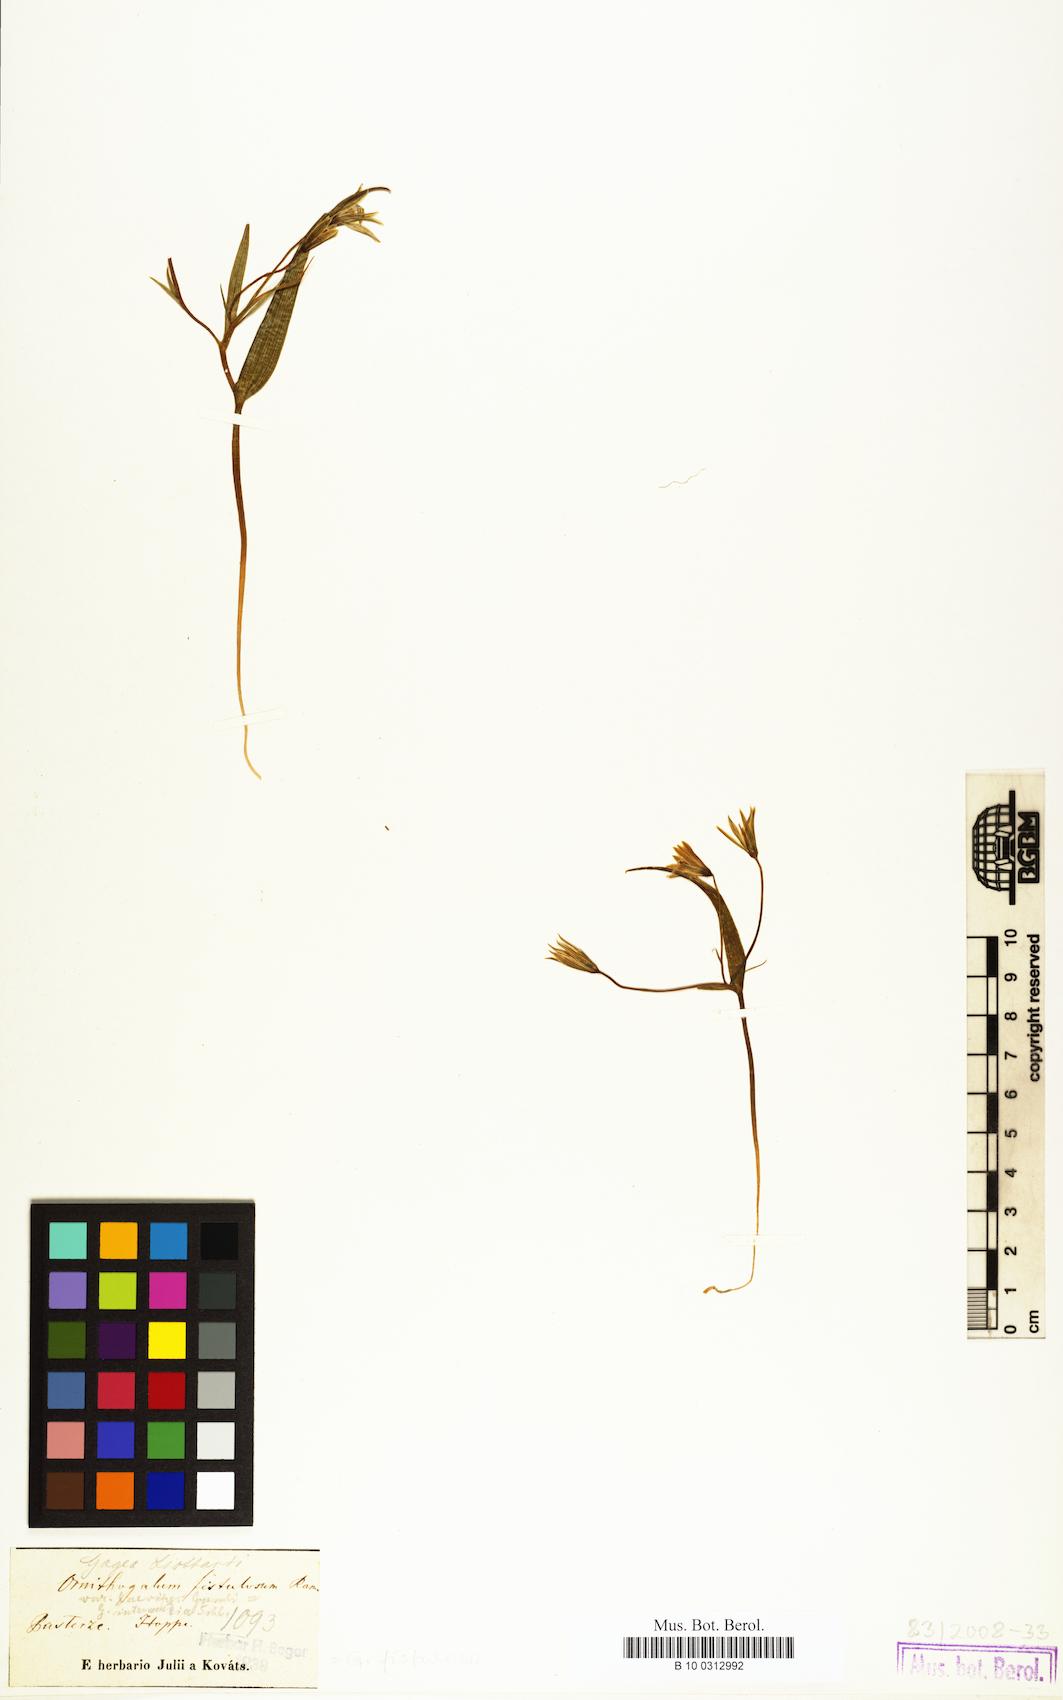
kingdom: Plantae
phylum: Tracheophyta
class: Liliopsida
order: Liliales
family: Liliaceae
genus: Gagea
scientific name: Gagea
